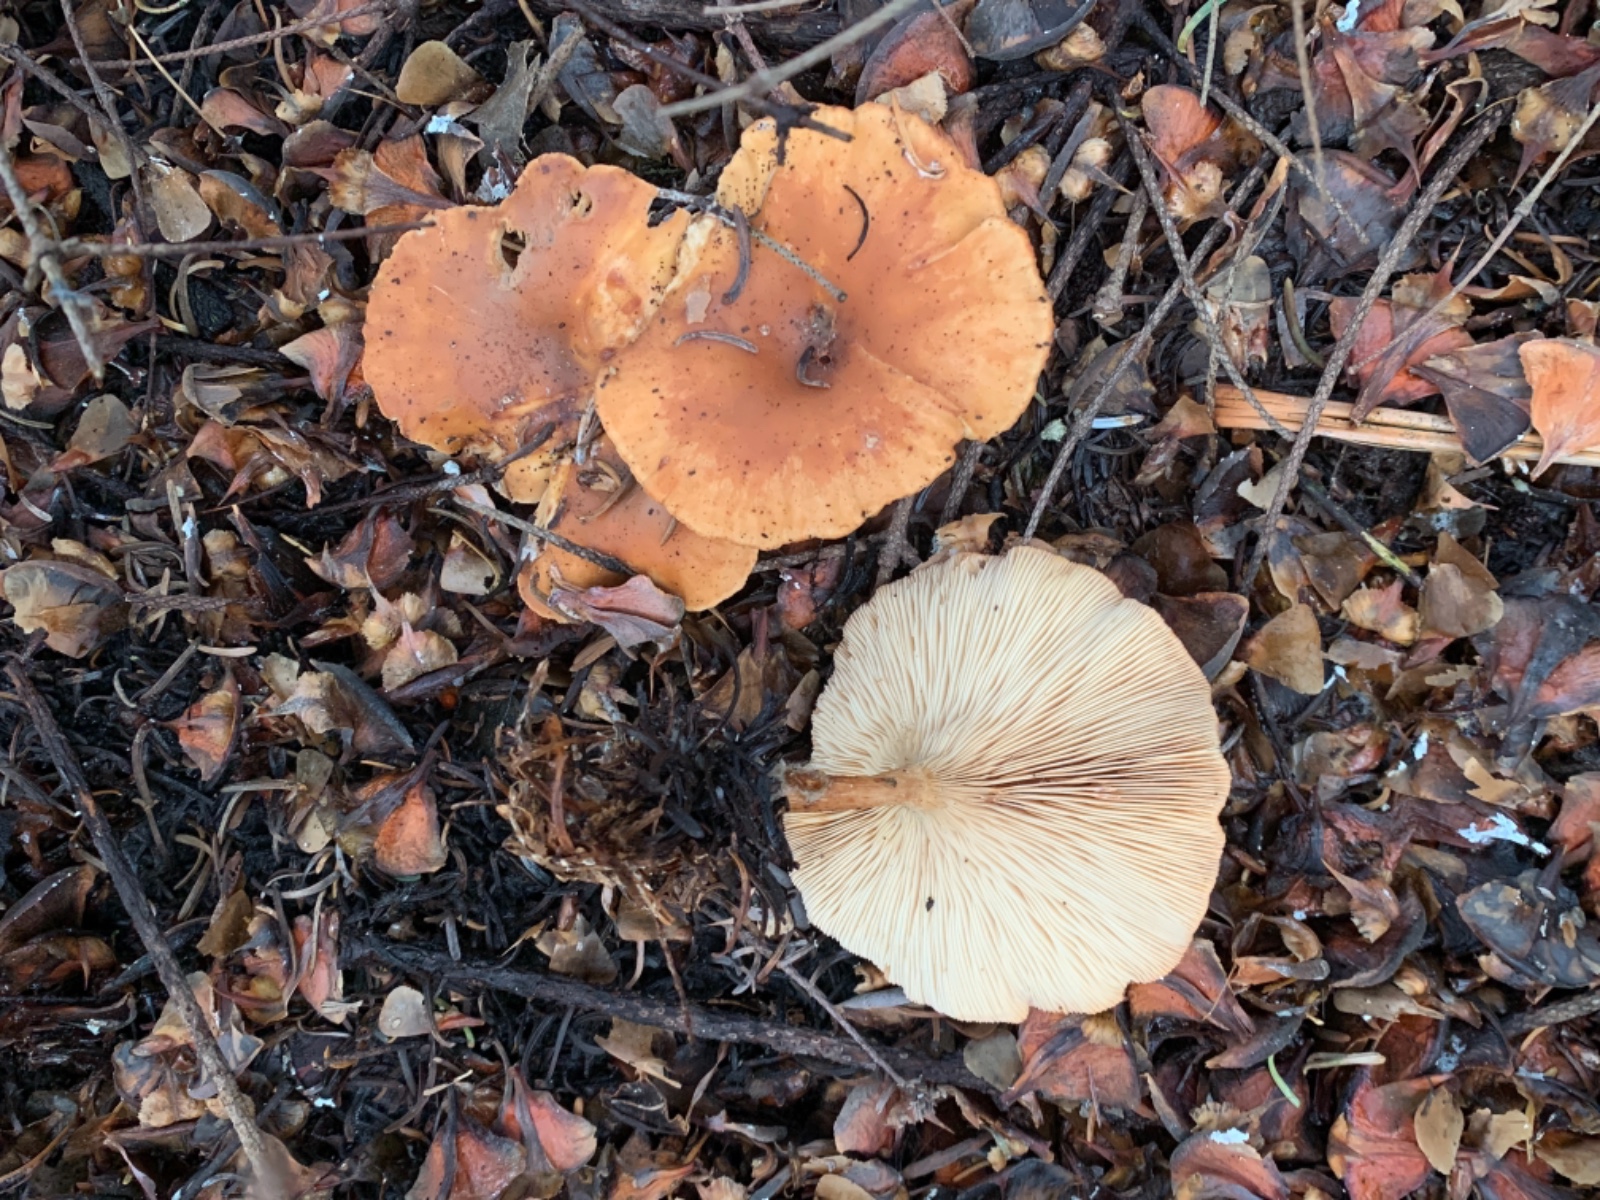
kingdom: Fungi
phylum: Basidiomycota
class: Agaricomycetes
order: Agaricales
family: Tricholomataceae
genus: Paralepista
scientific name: Paralepista flaccida
